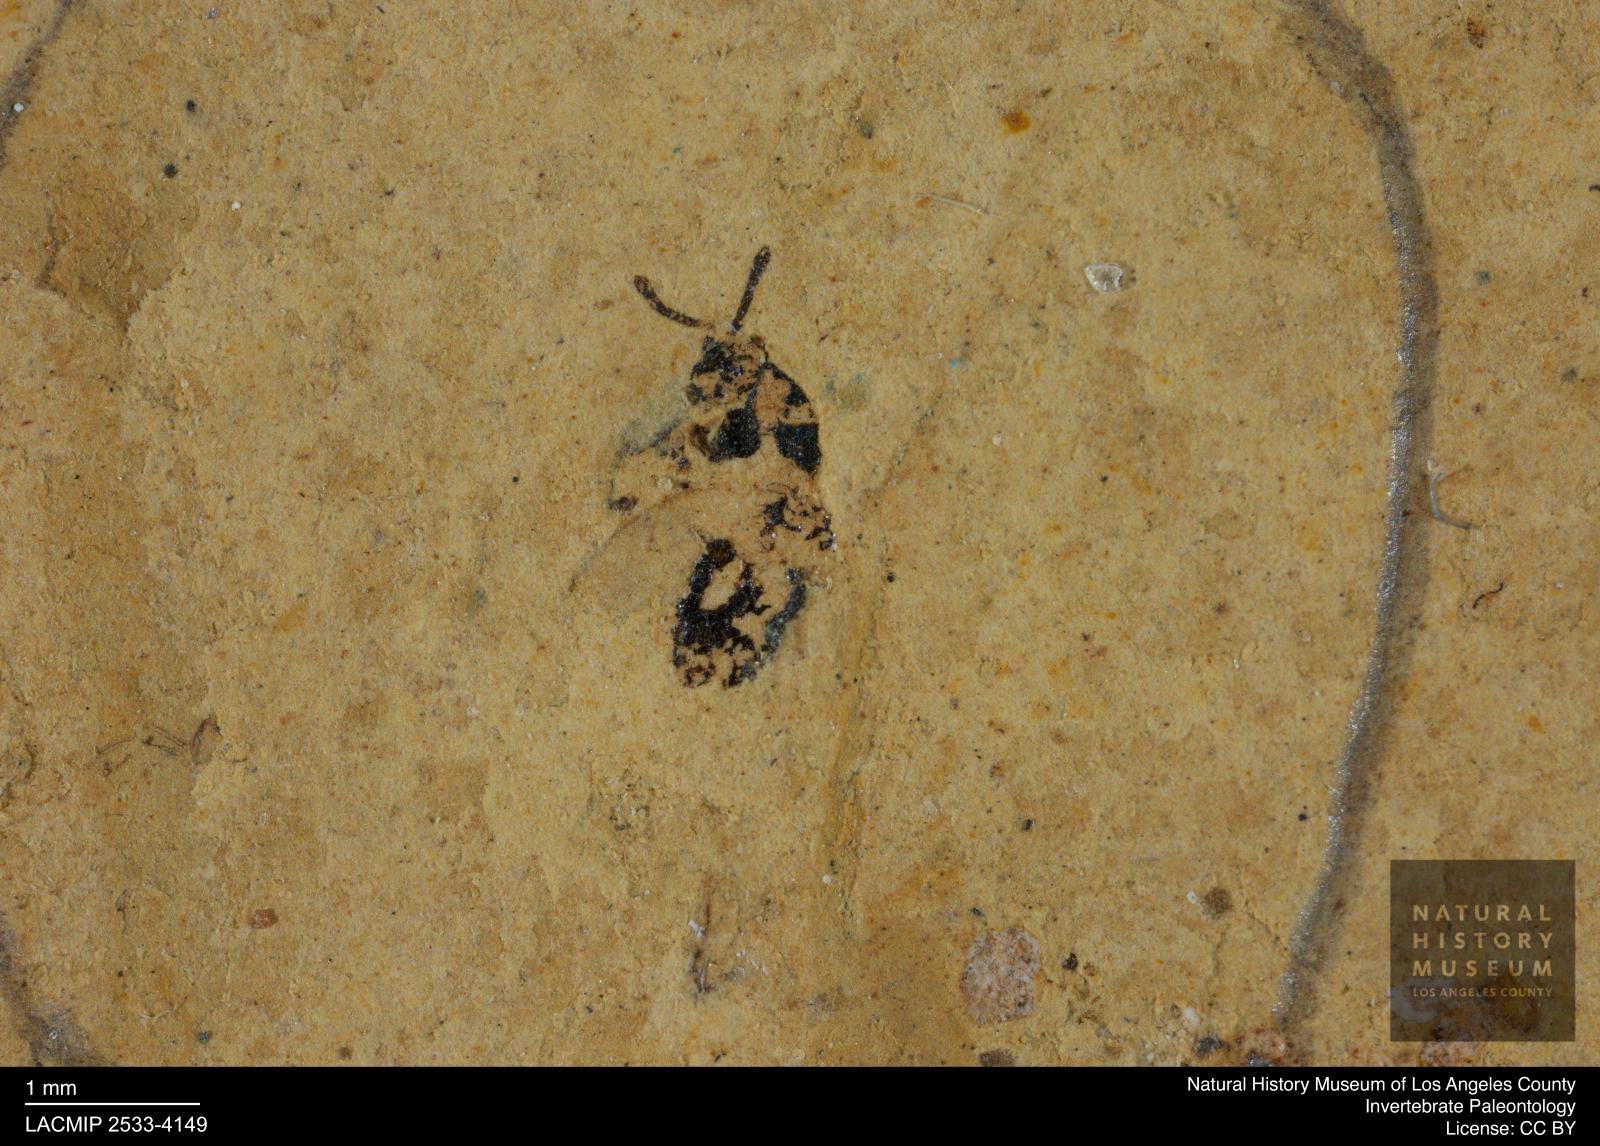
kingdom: Animalia
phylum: Arthropoda
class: Insecta
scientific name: Insecta
